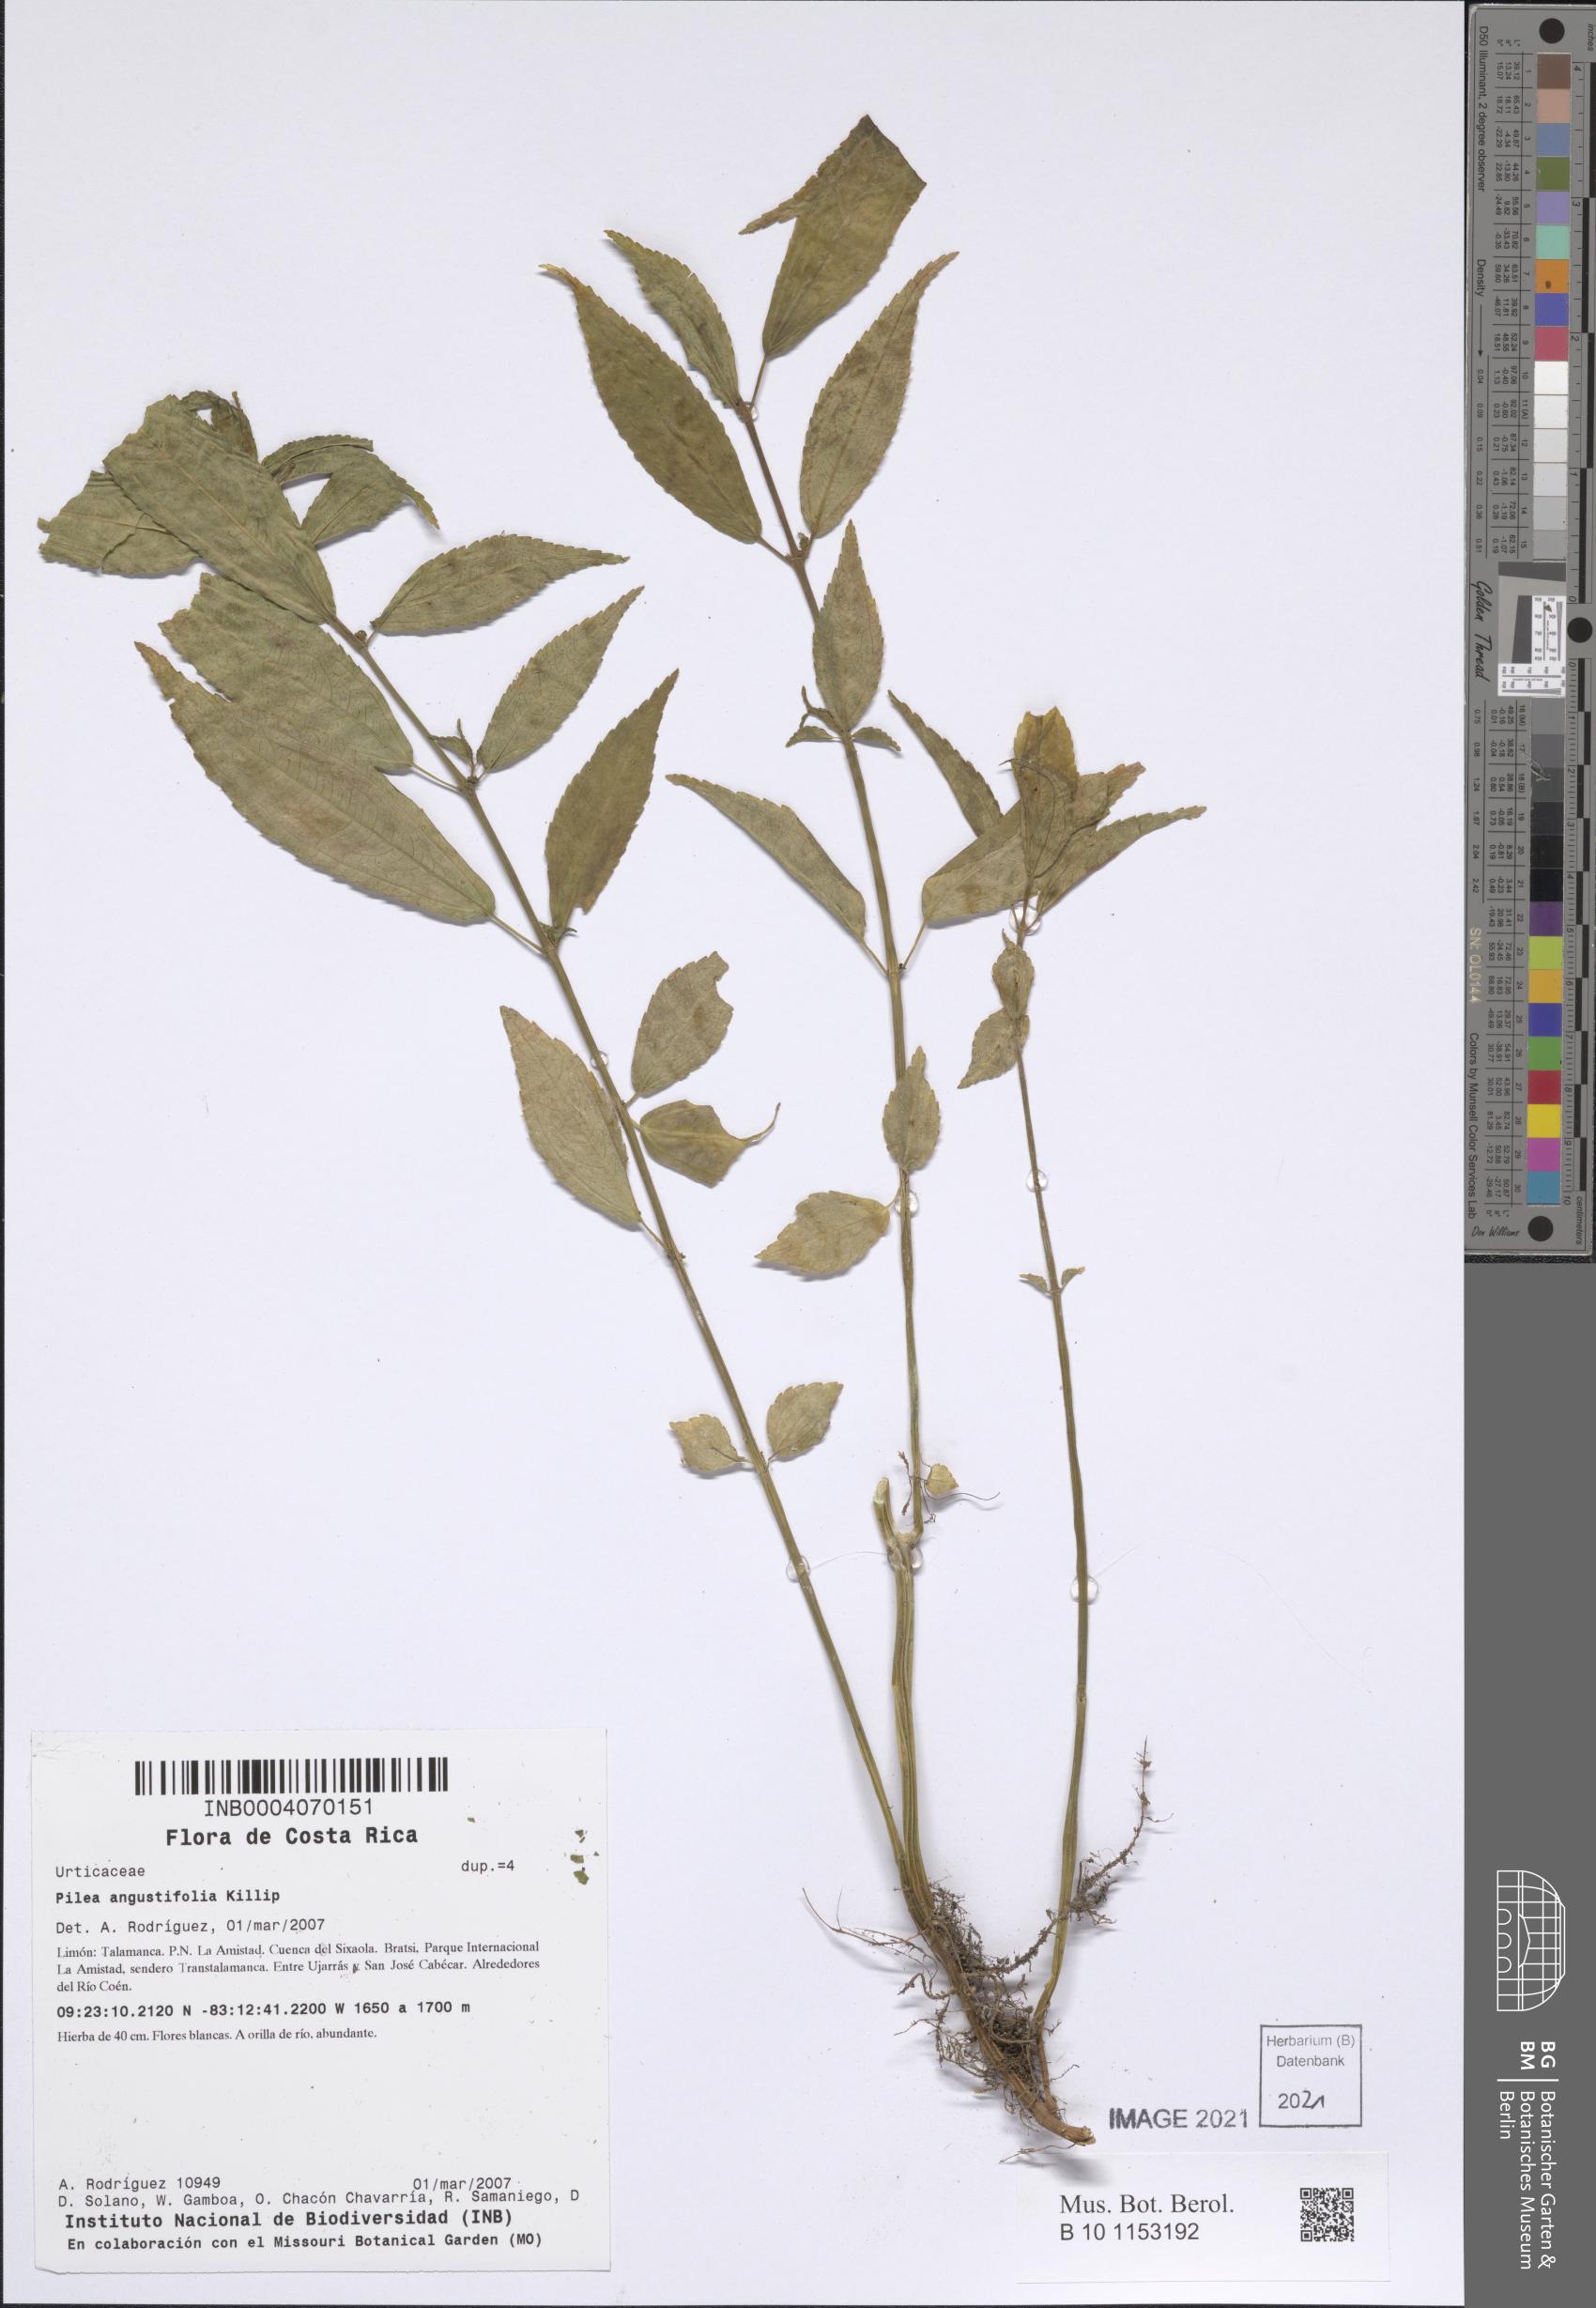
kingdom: Plantae
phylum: Tracheophyta
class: Magnoliopsida
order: Rosales
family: Urticaceae
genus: Pilea
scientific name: Pilea angustifolia
